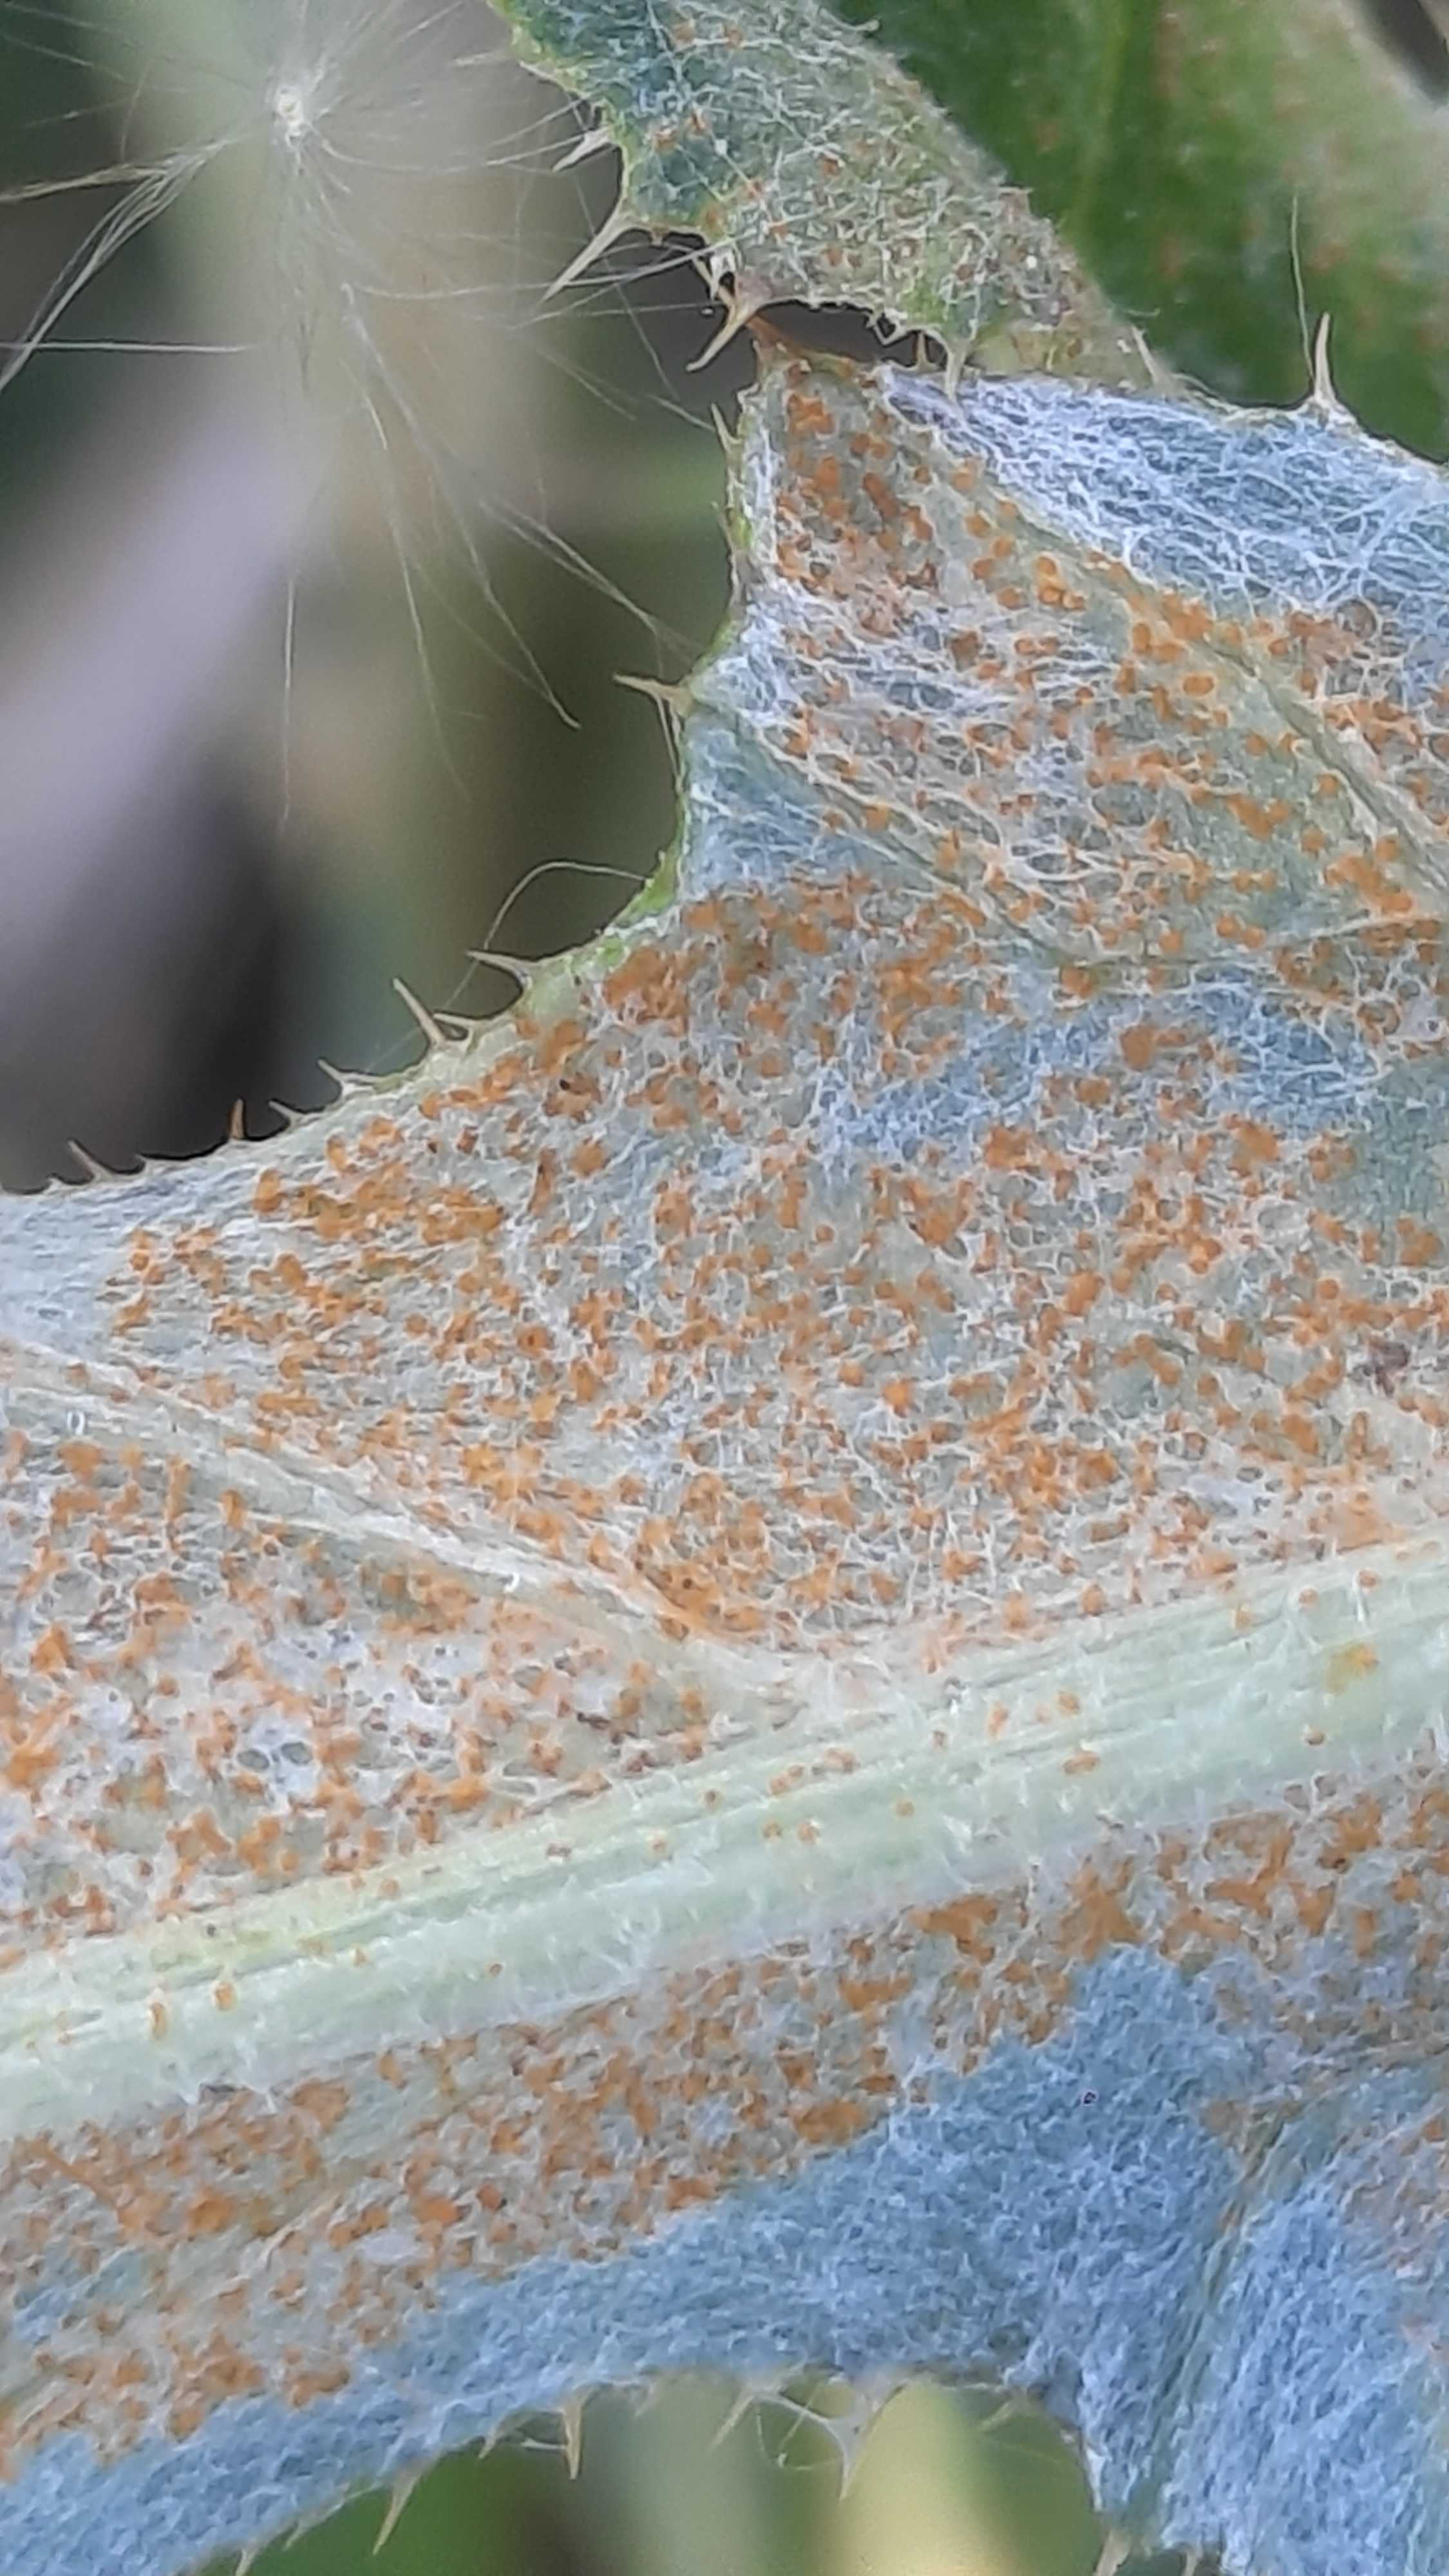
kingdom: Fungi
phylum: Basidiomycota
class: Pucciniomycetes
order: Pucciniales
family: Pucciniaceae
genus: Puccinia
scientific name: Puccinia suaveolens
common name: tidsel-tvecellerust
